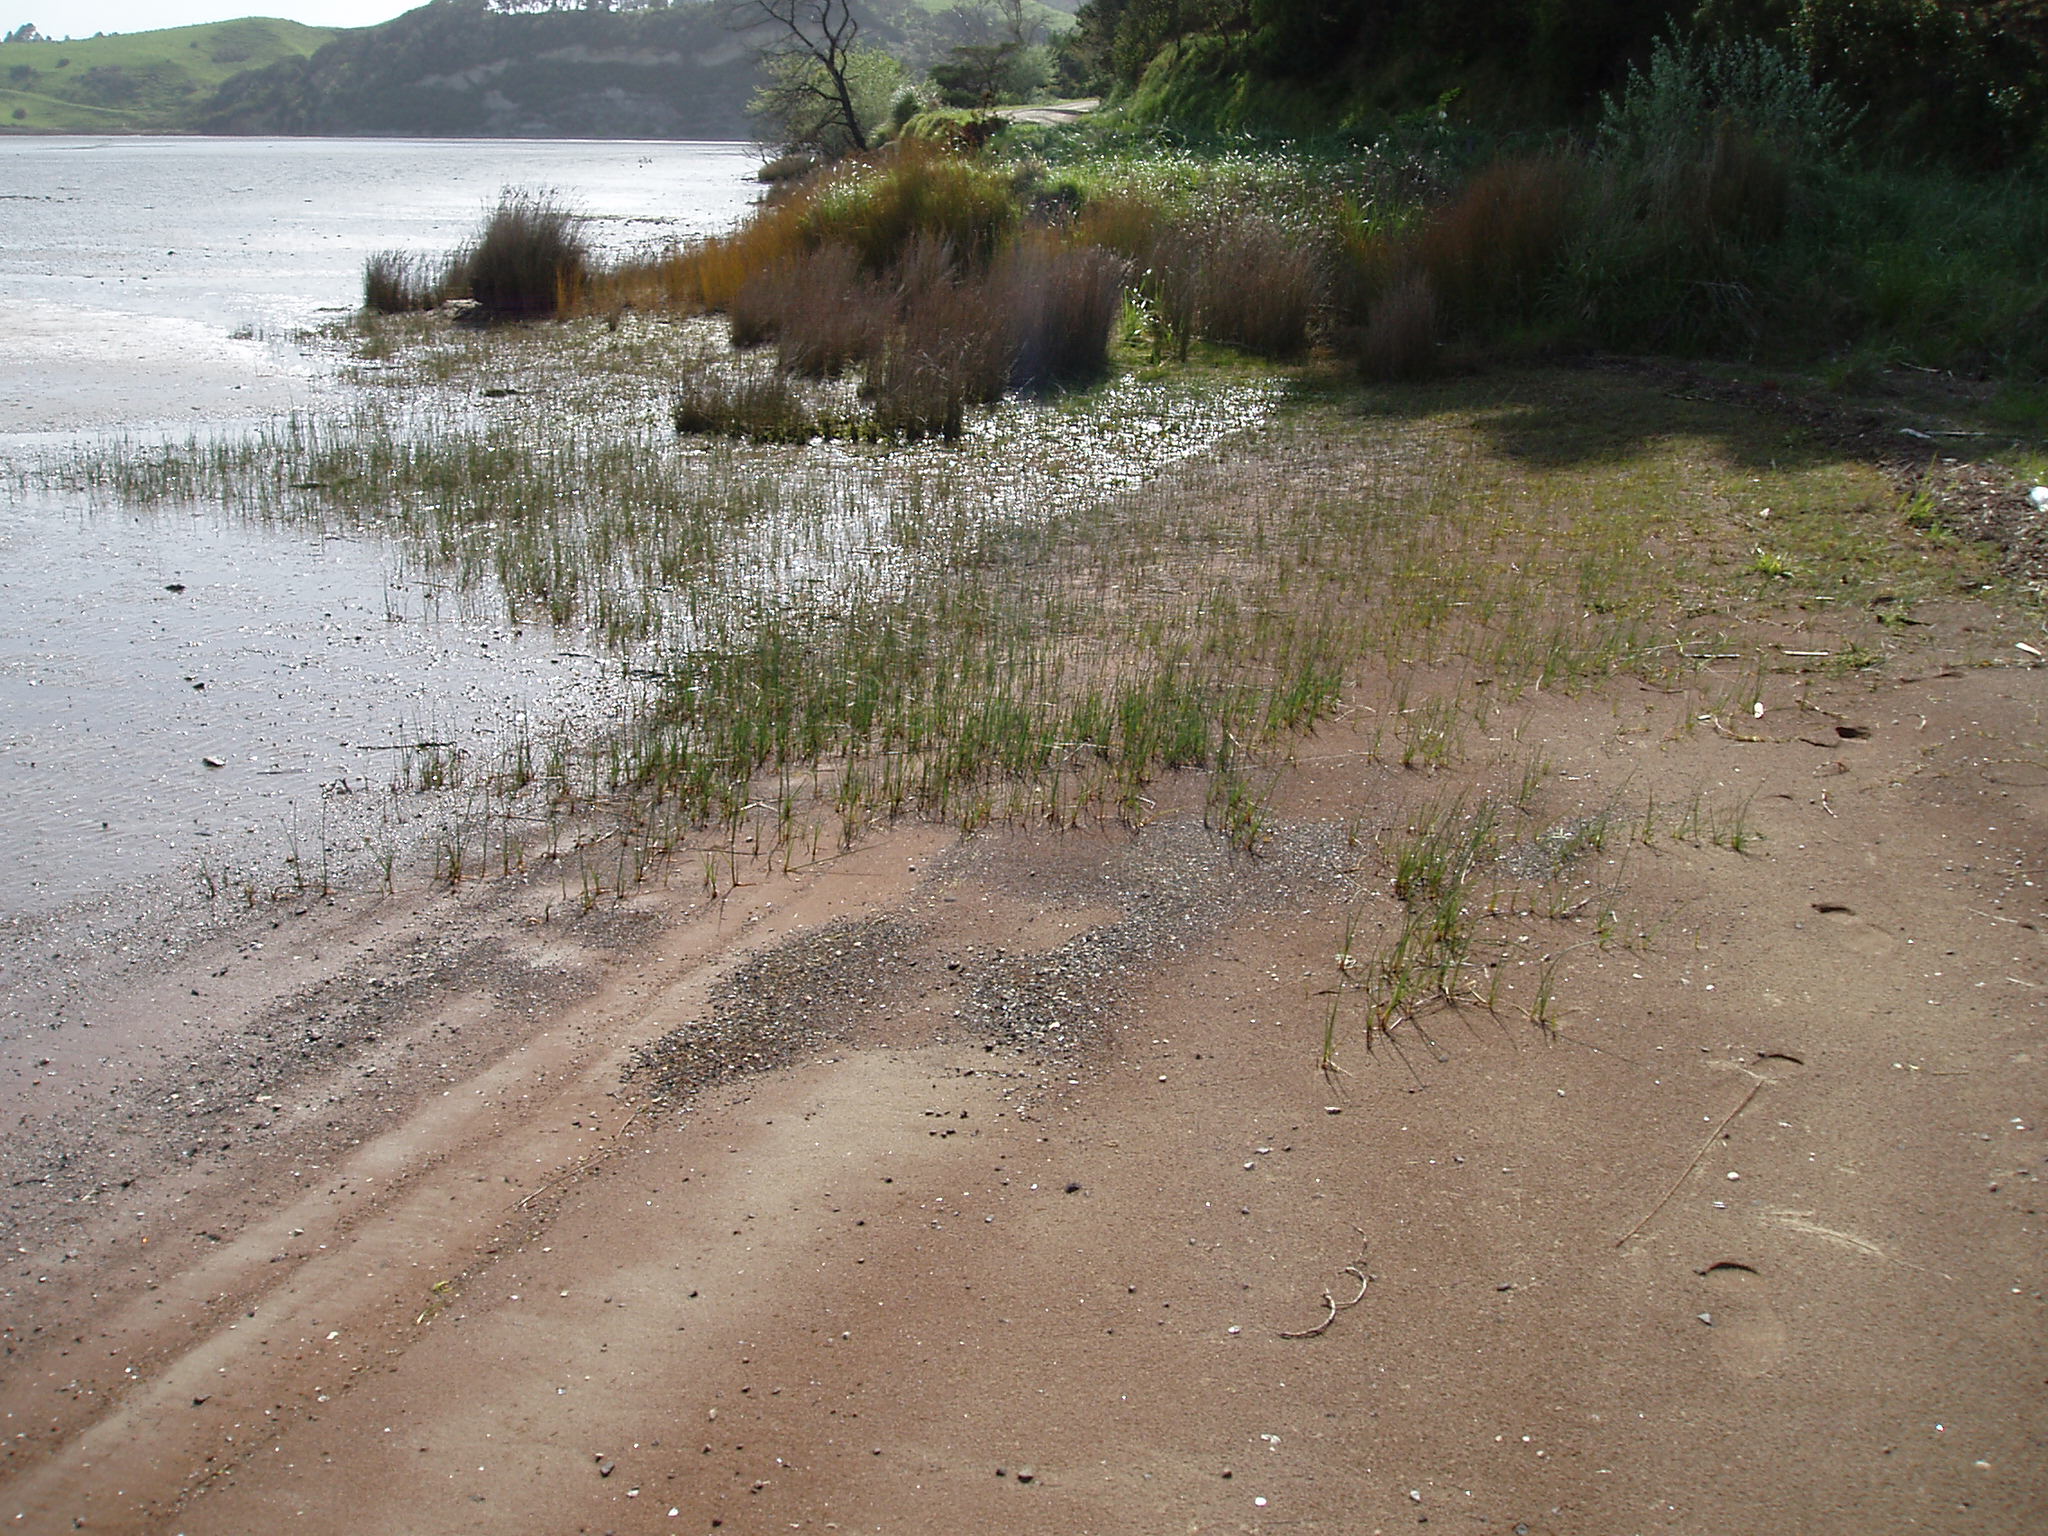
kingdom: Plantae
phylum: Tracheophyta
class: Liliopsida
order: Poales
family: Cyperaceae
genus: Schoenoplectus
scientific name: Schoenoplectus pungens
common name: Sharp club-rush
